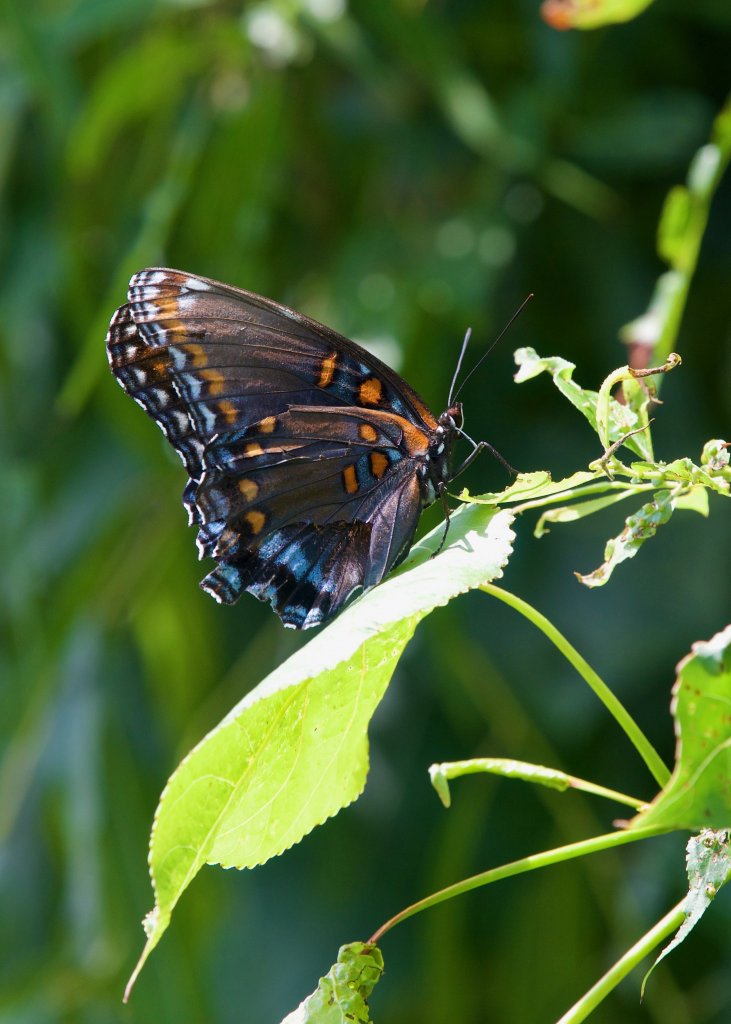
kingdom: Animalia
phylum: Arthropoda
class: Insecta
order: Lepidoptera
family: Nymphalidae
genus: Limenitis
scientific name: Limenitis astyanax
